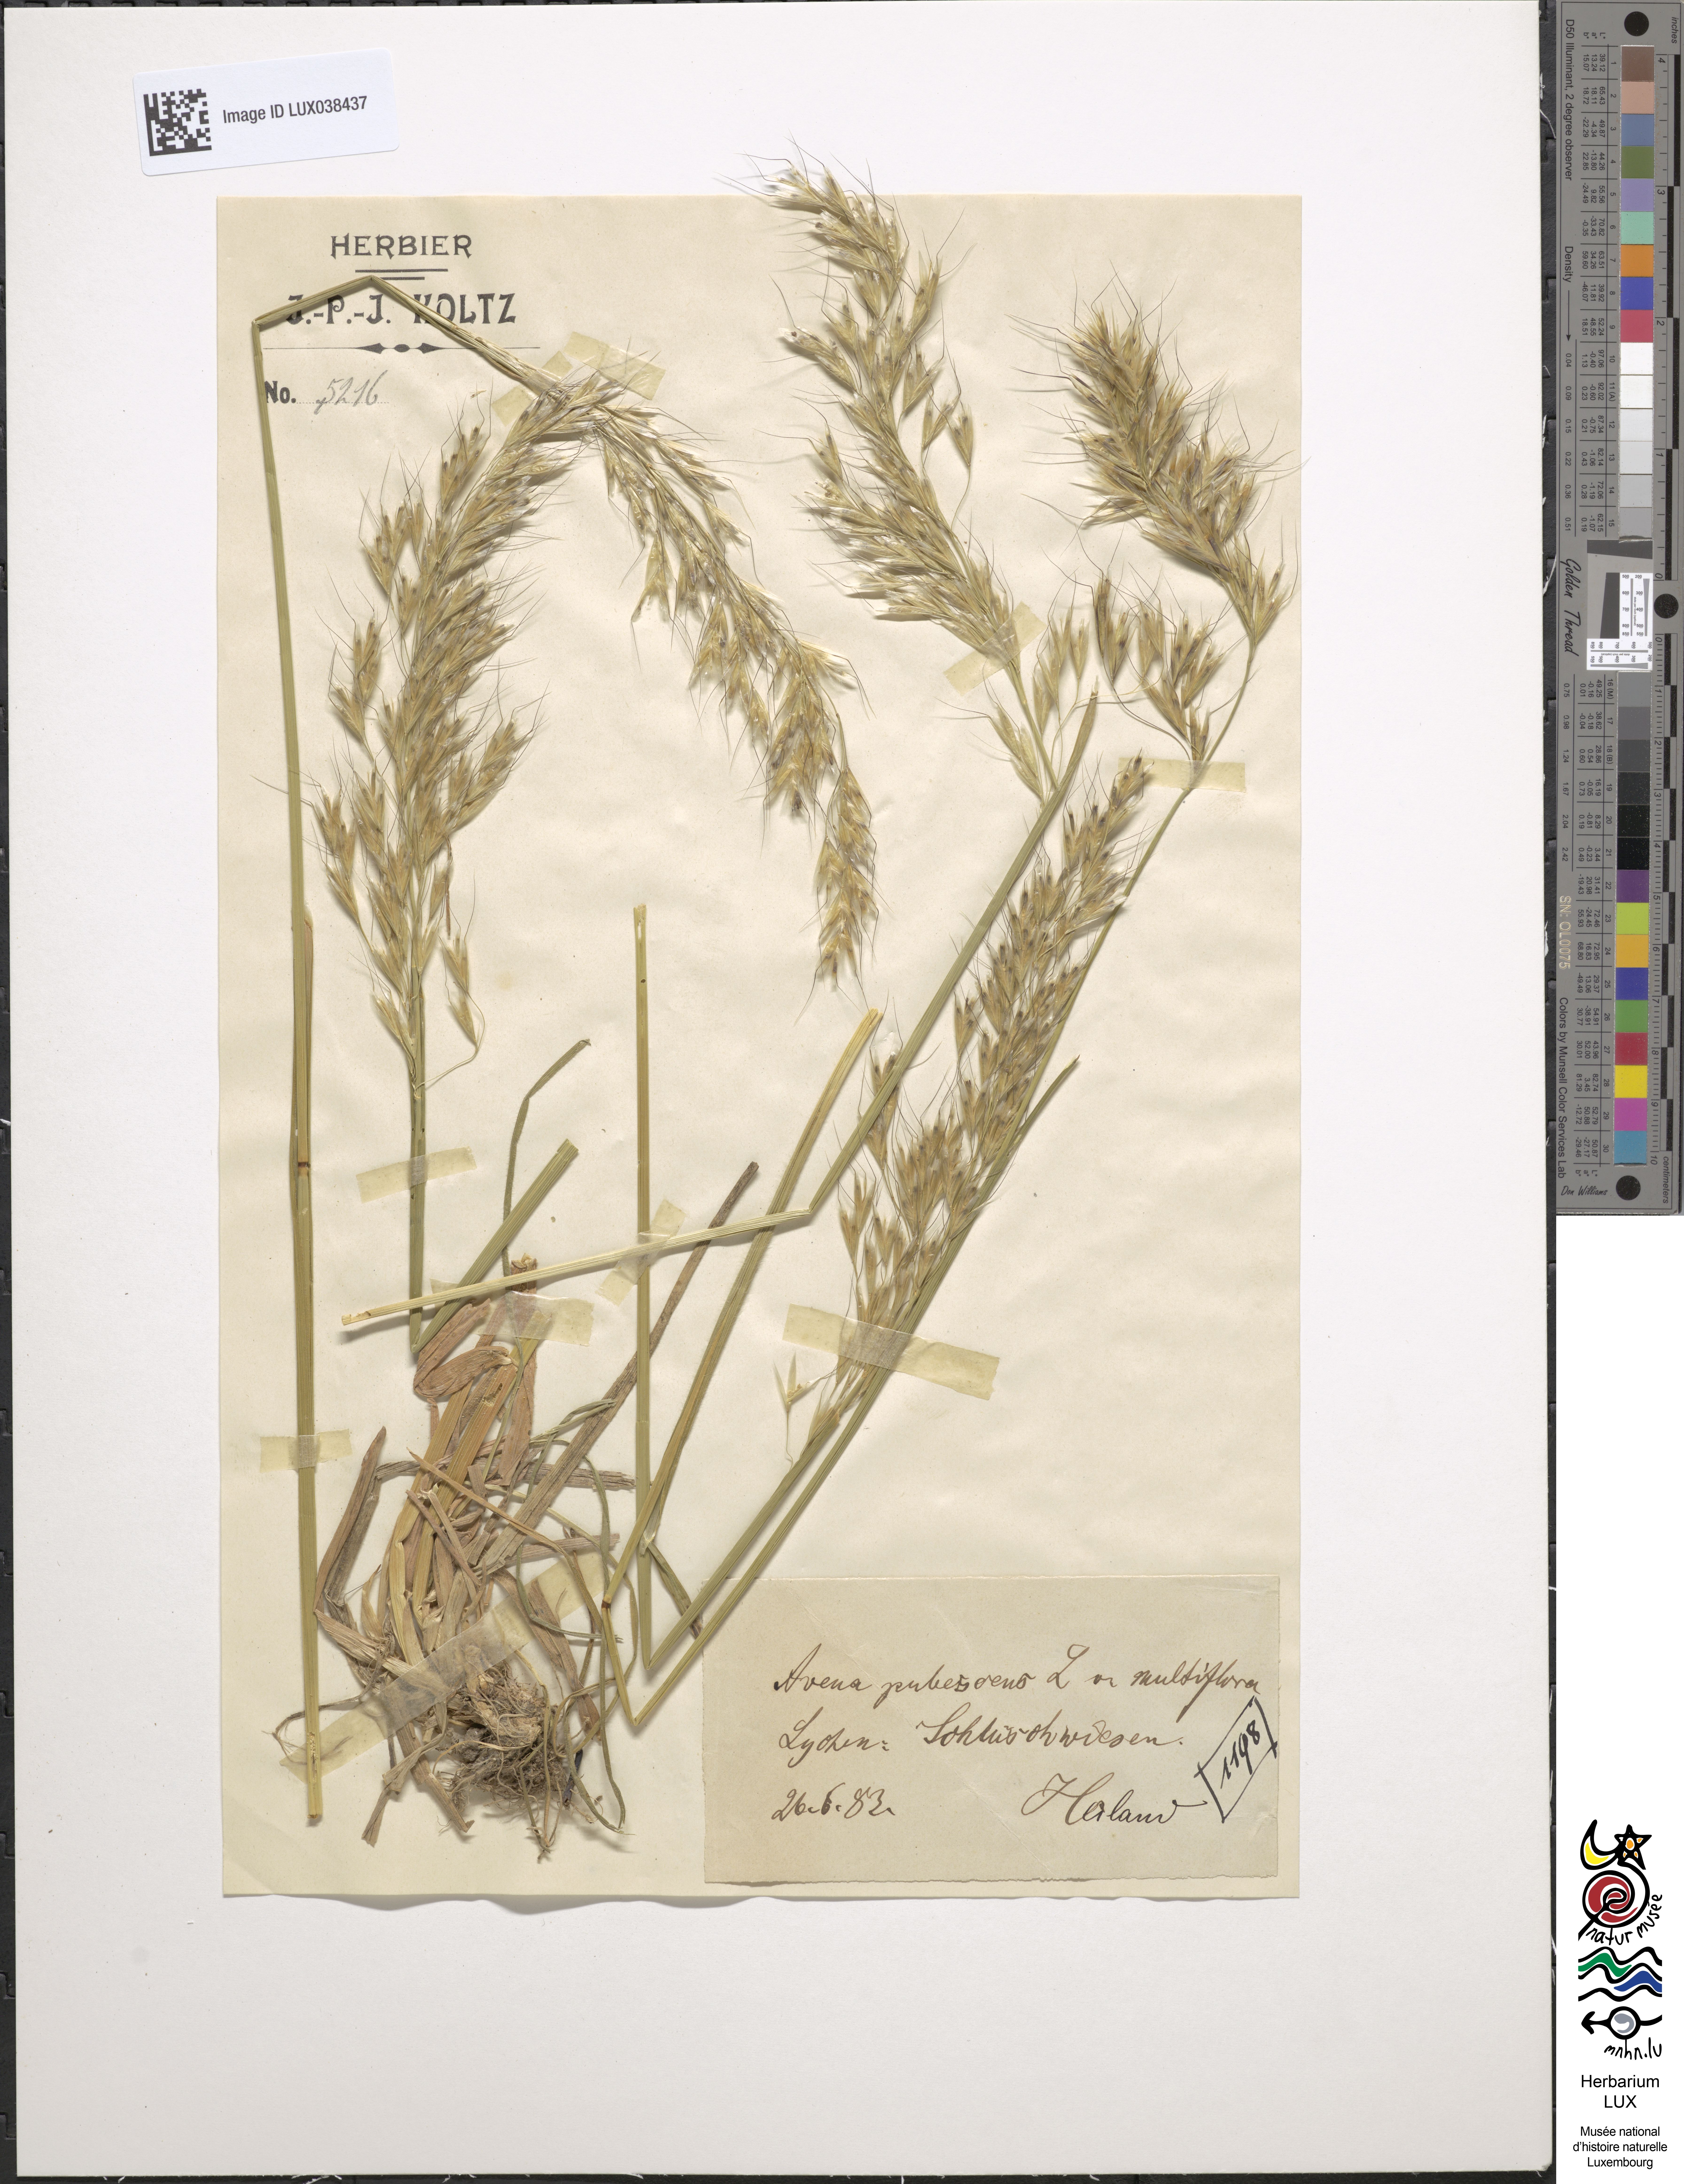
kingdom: Plantae
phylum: Tracheophyta
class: Liliopsida
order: Poales
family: Poaceae
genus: Avenula
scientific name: Avenula pubescens
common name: Downy alpine oatgrass
